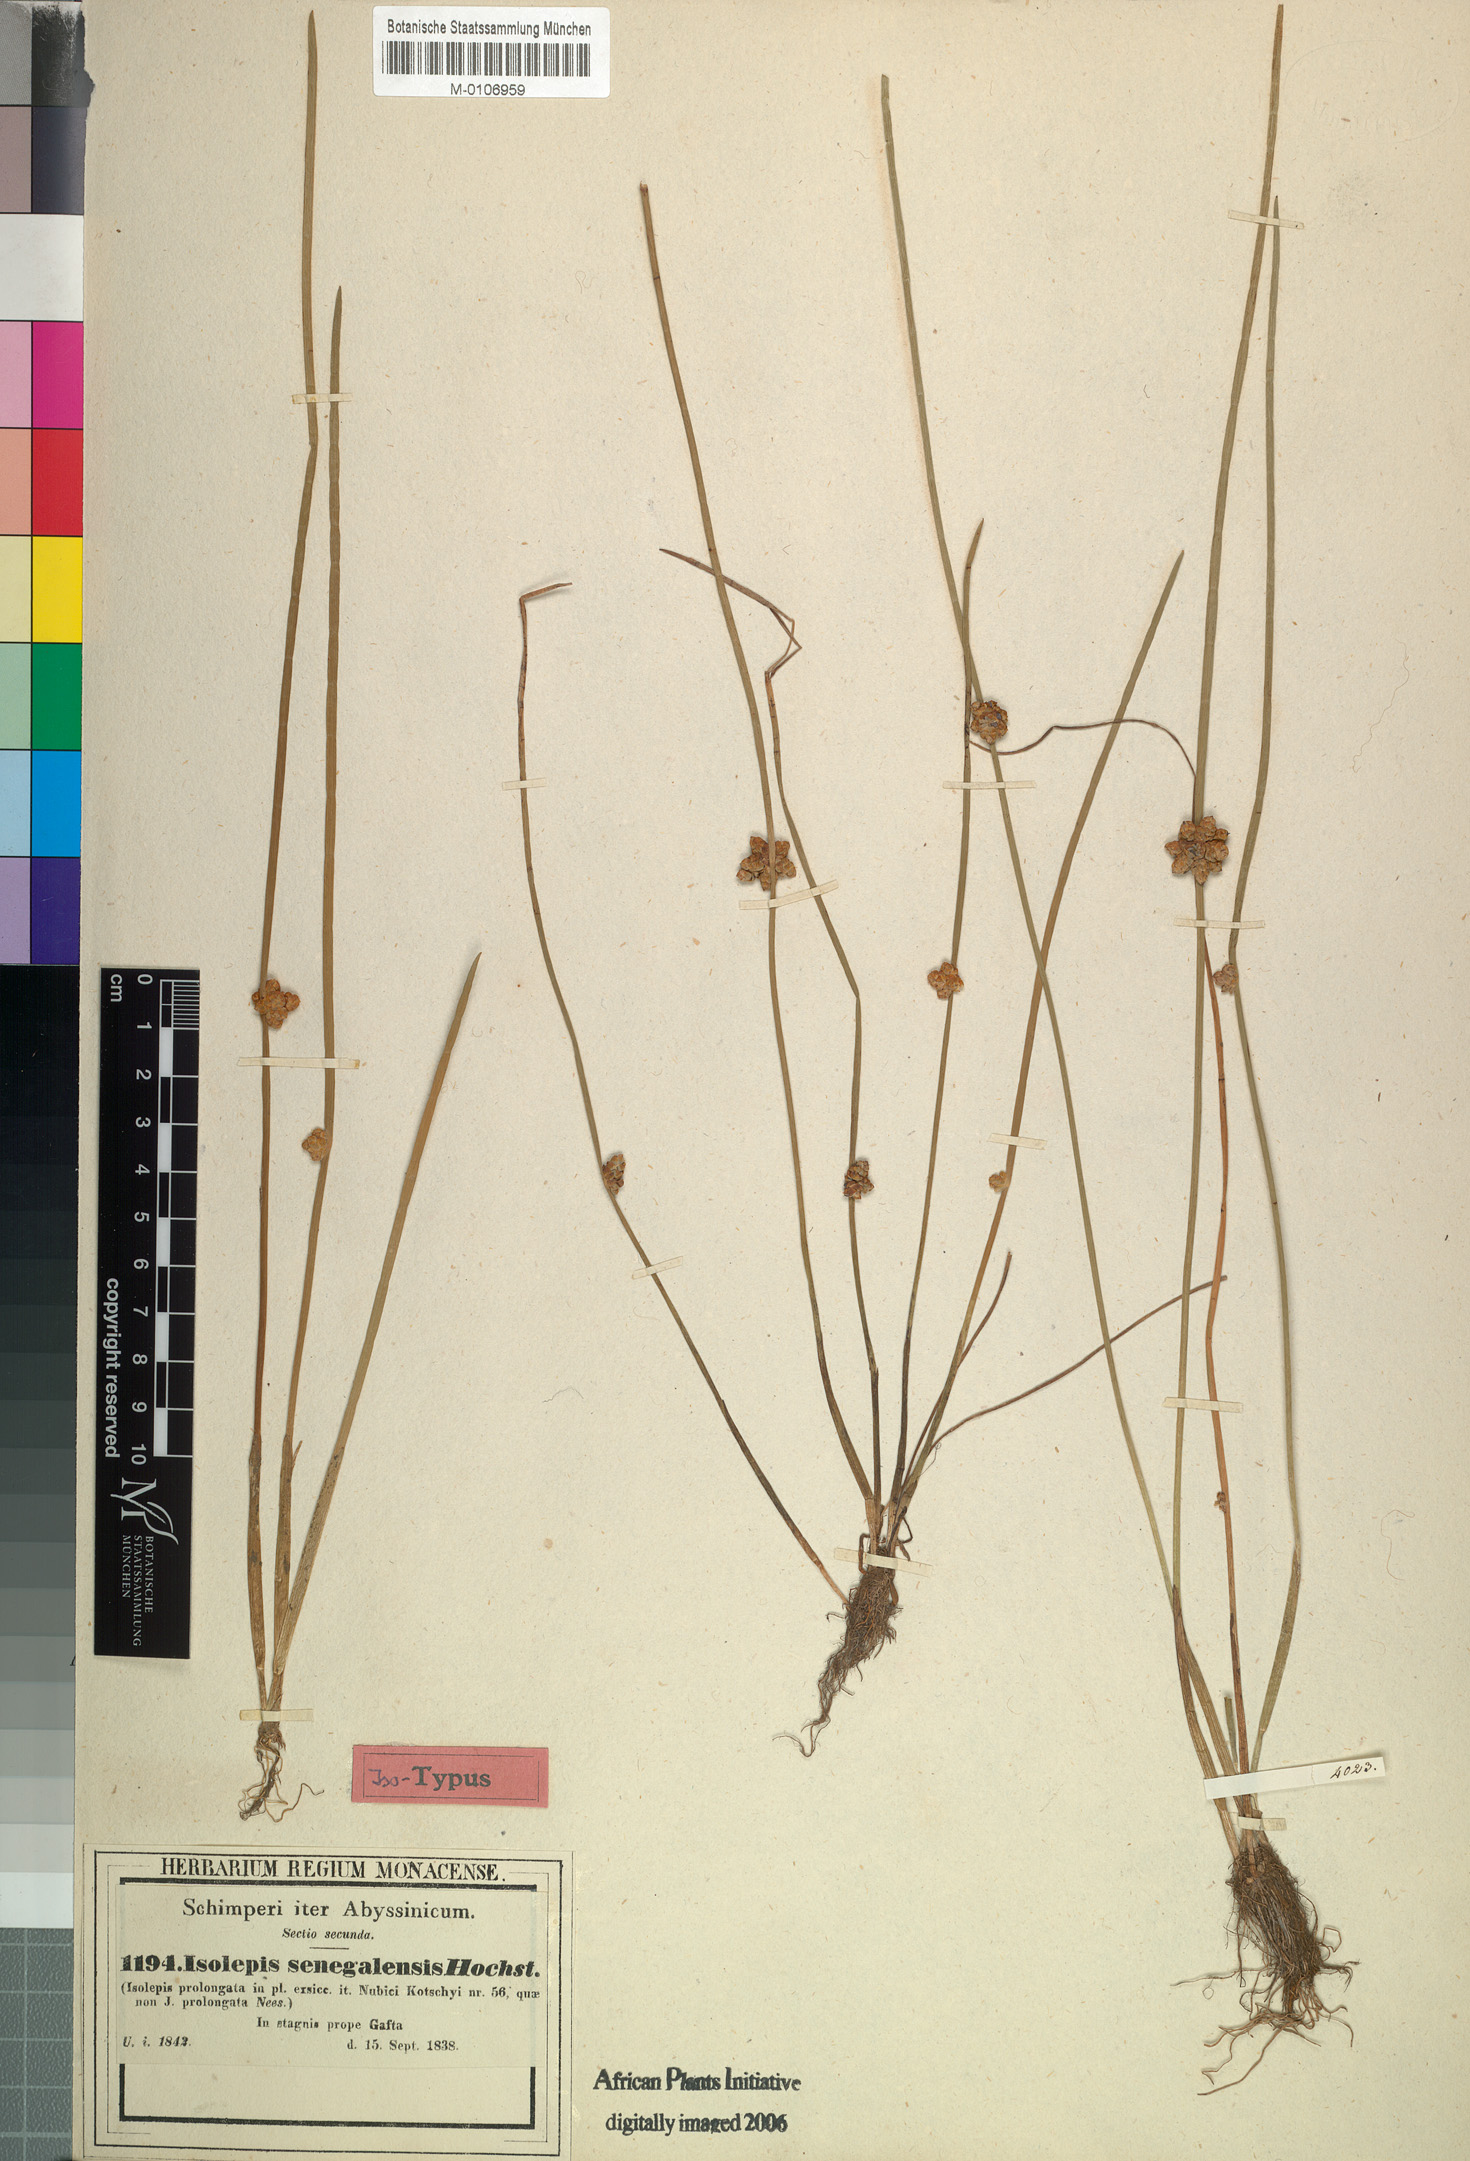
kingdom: Plantae
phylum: Tracheophyta
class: Liliopsida
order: Poales
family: Cyperaceae
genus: Schoenoplectiella
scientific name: Schoenoplectiella praelongata
